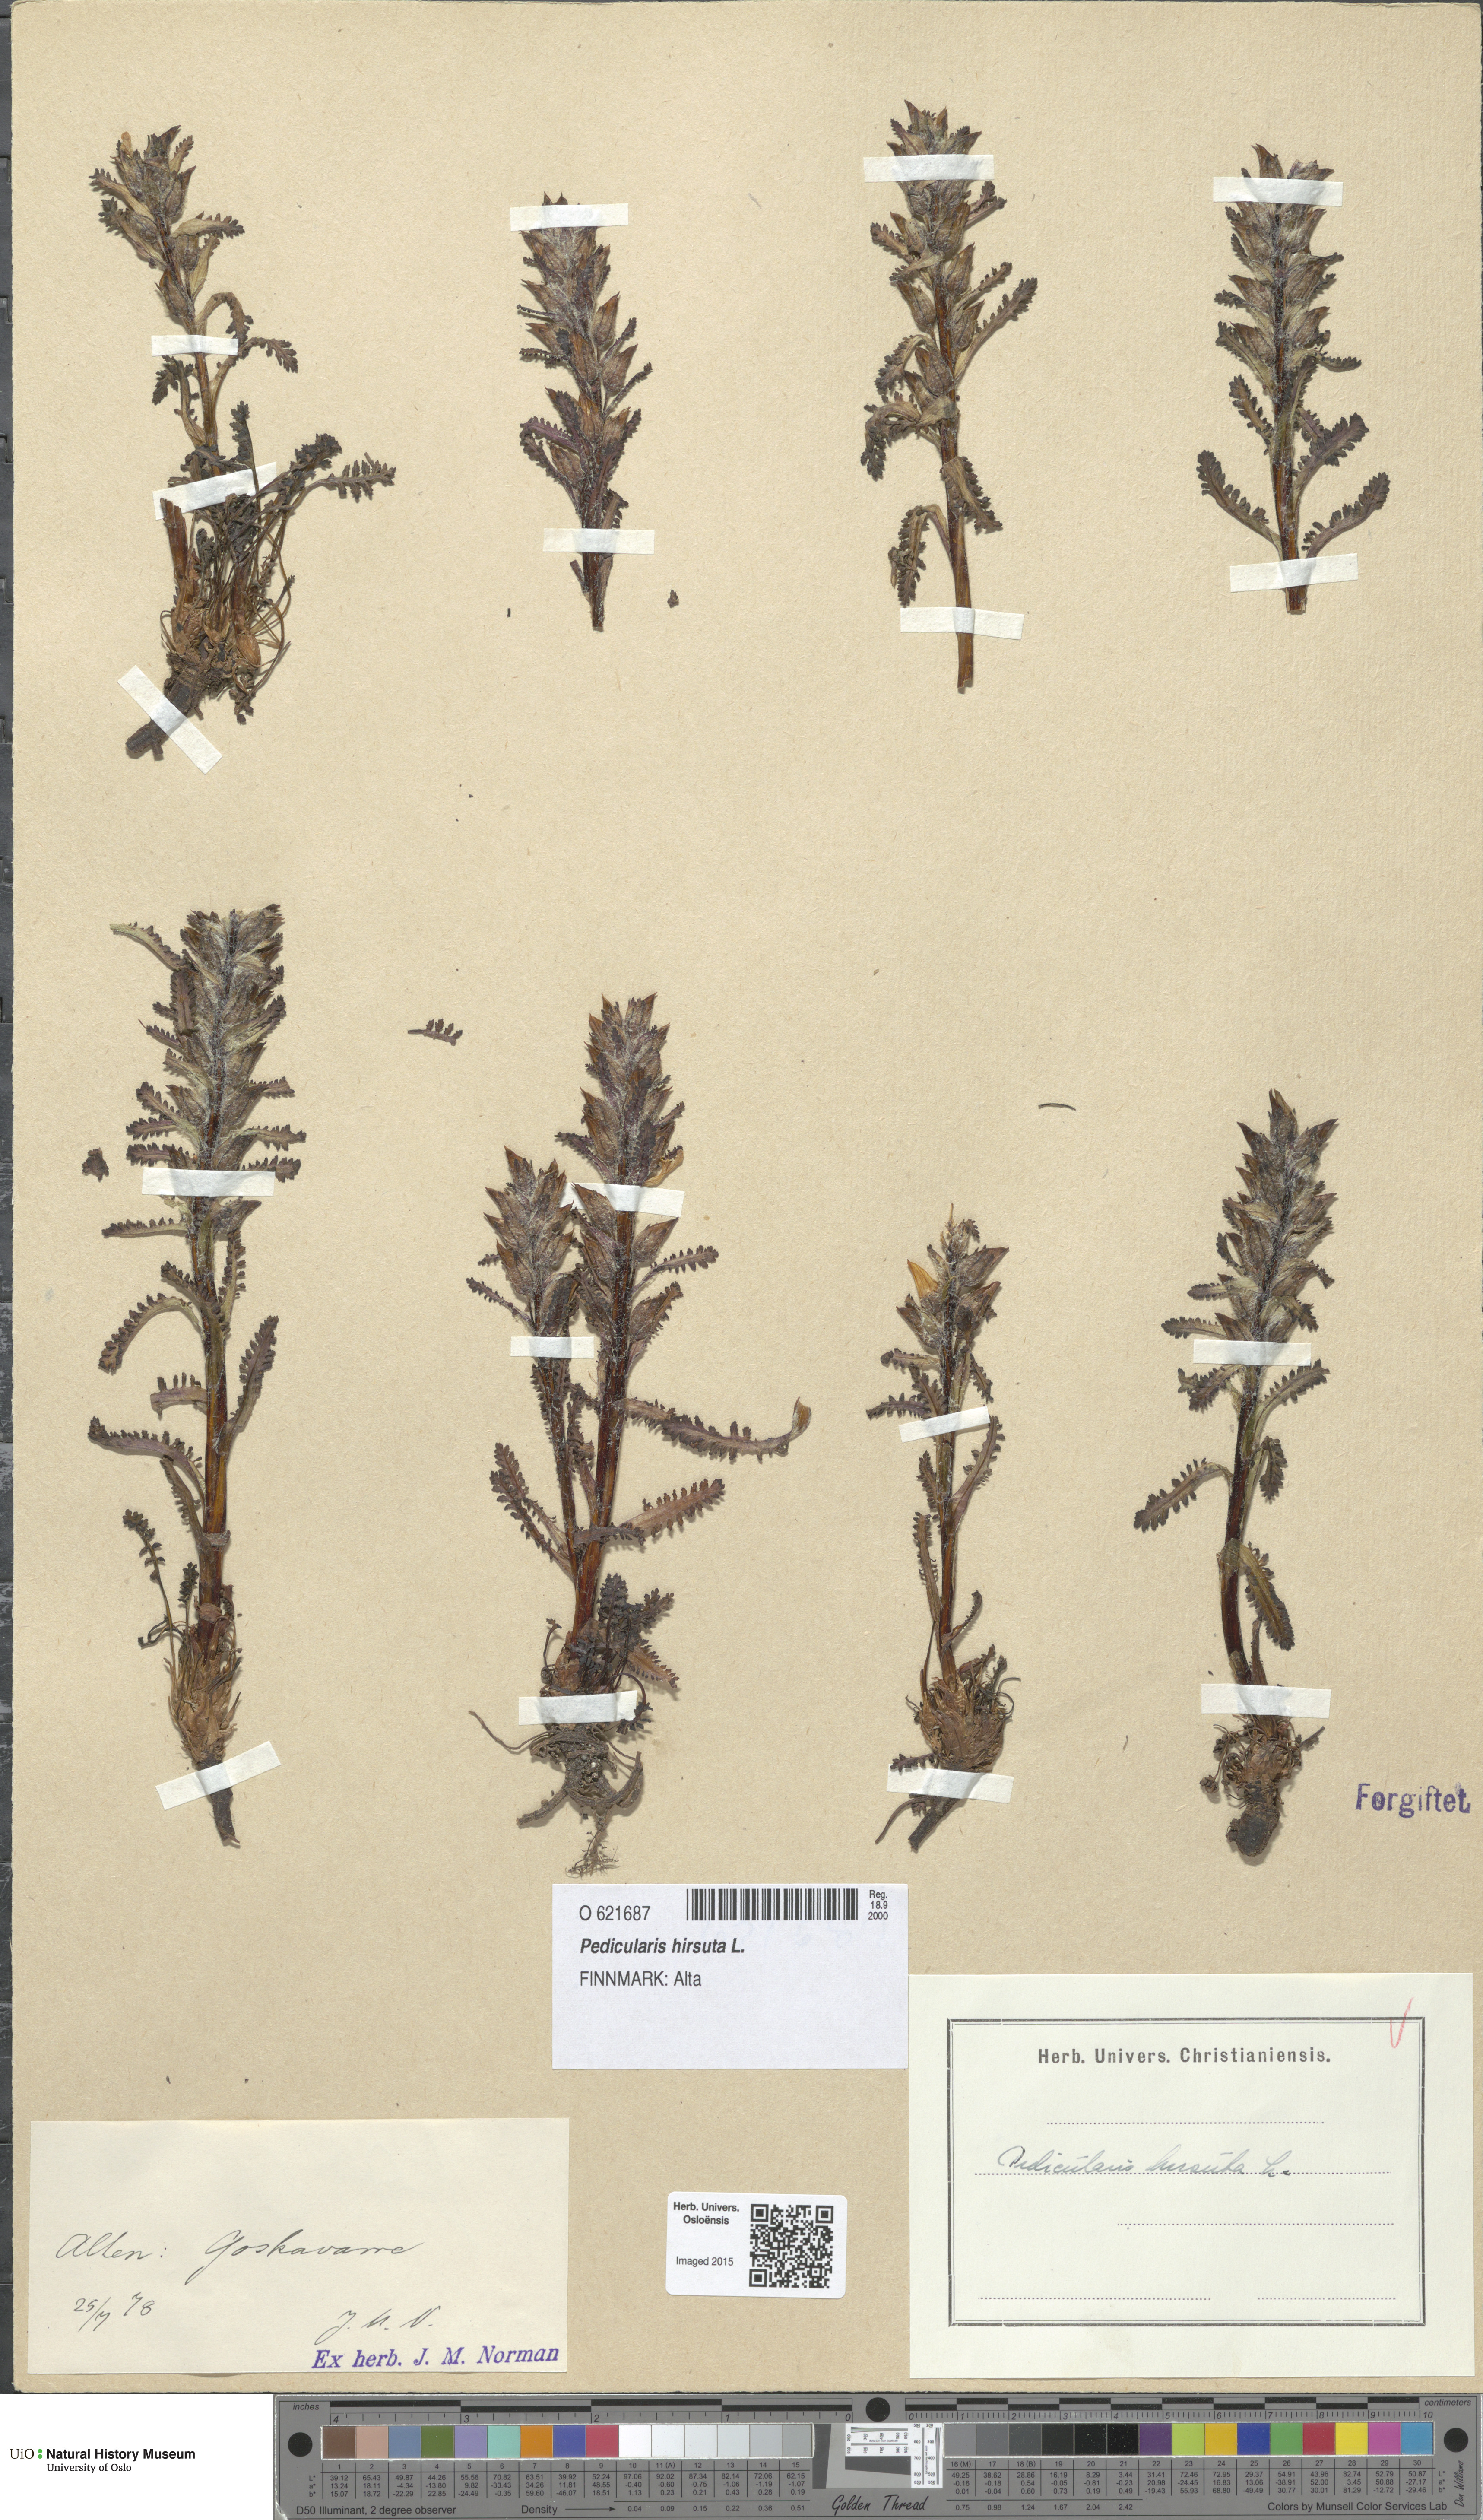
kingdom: Plantae
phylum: Tracheophyta
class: Magnoliopsida
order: Lamiales
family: Orobanchaceae
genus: Pedicularis
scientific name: Pedicularis hirsuta
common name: Hairy lousewort
